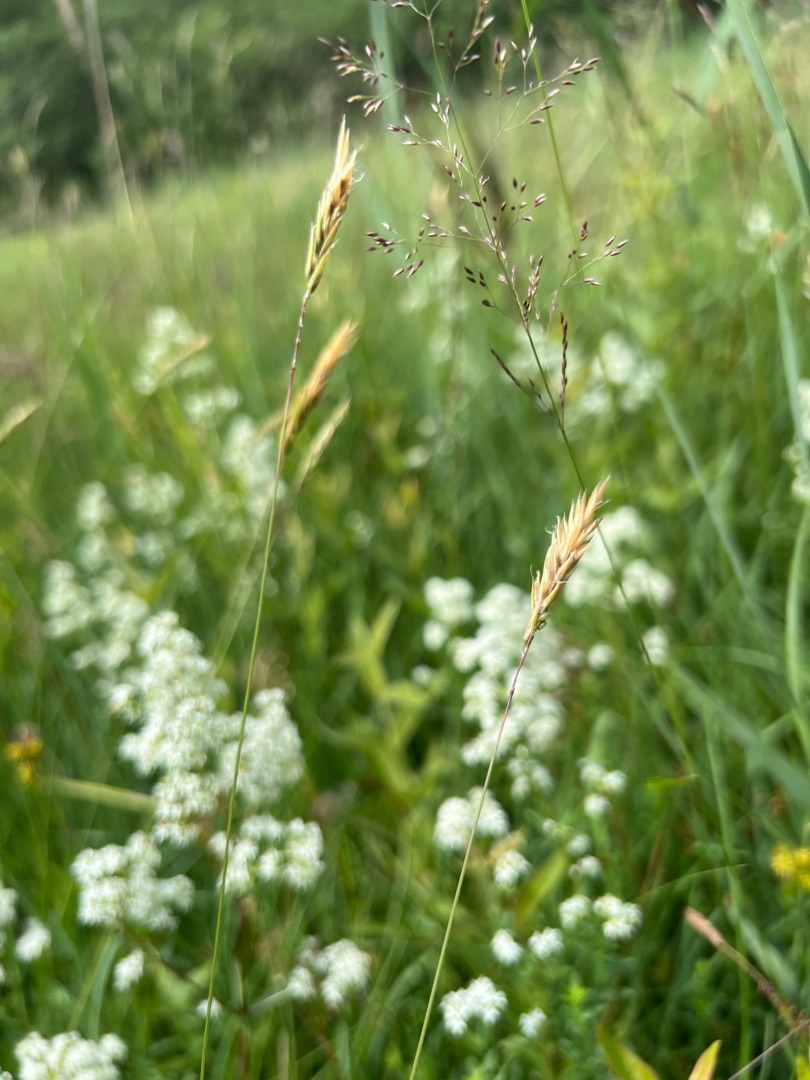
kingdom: Plantae
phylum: Tracheophyta
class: Liliopsida
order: Poales
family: Poaceae
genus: Anthoxanthum
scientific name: Anthoxanthum odoratum
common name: Vellugtende gulaks
